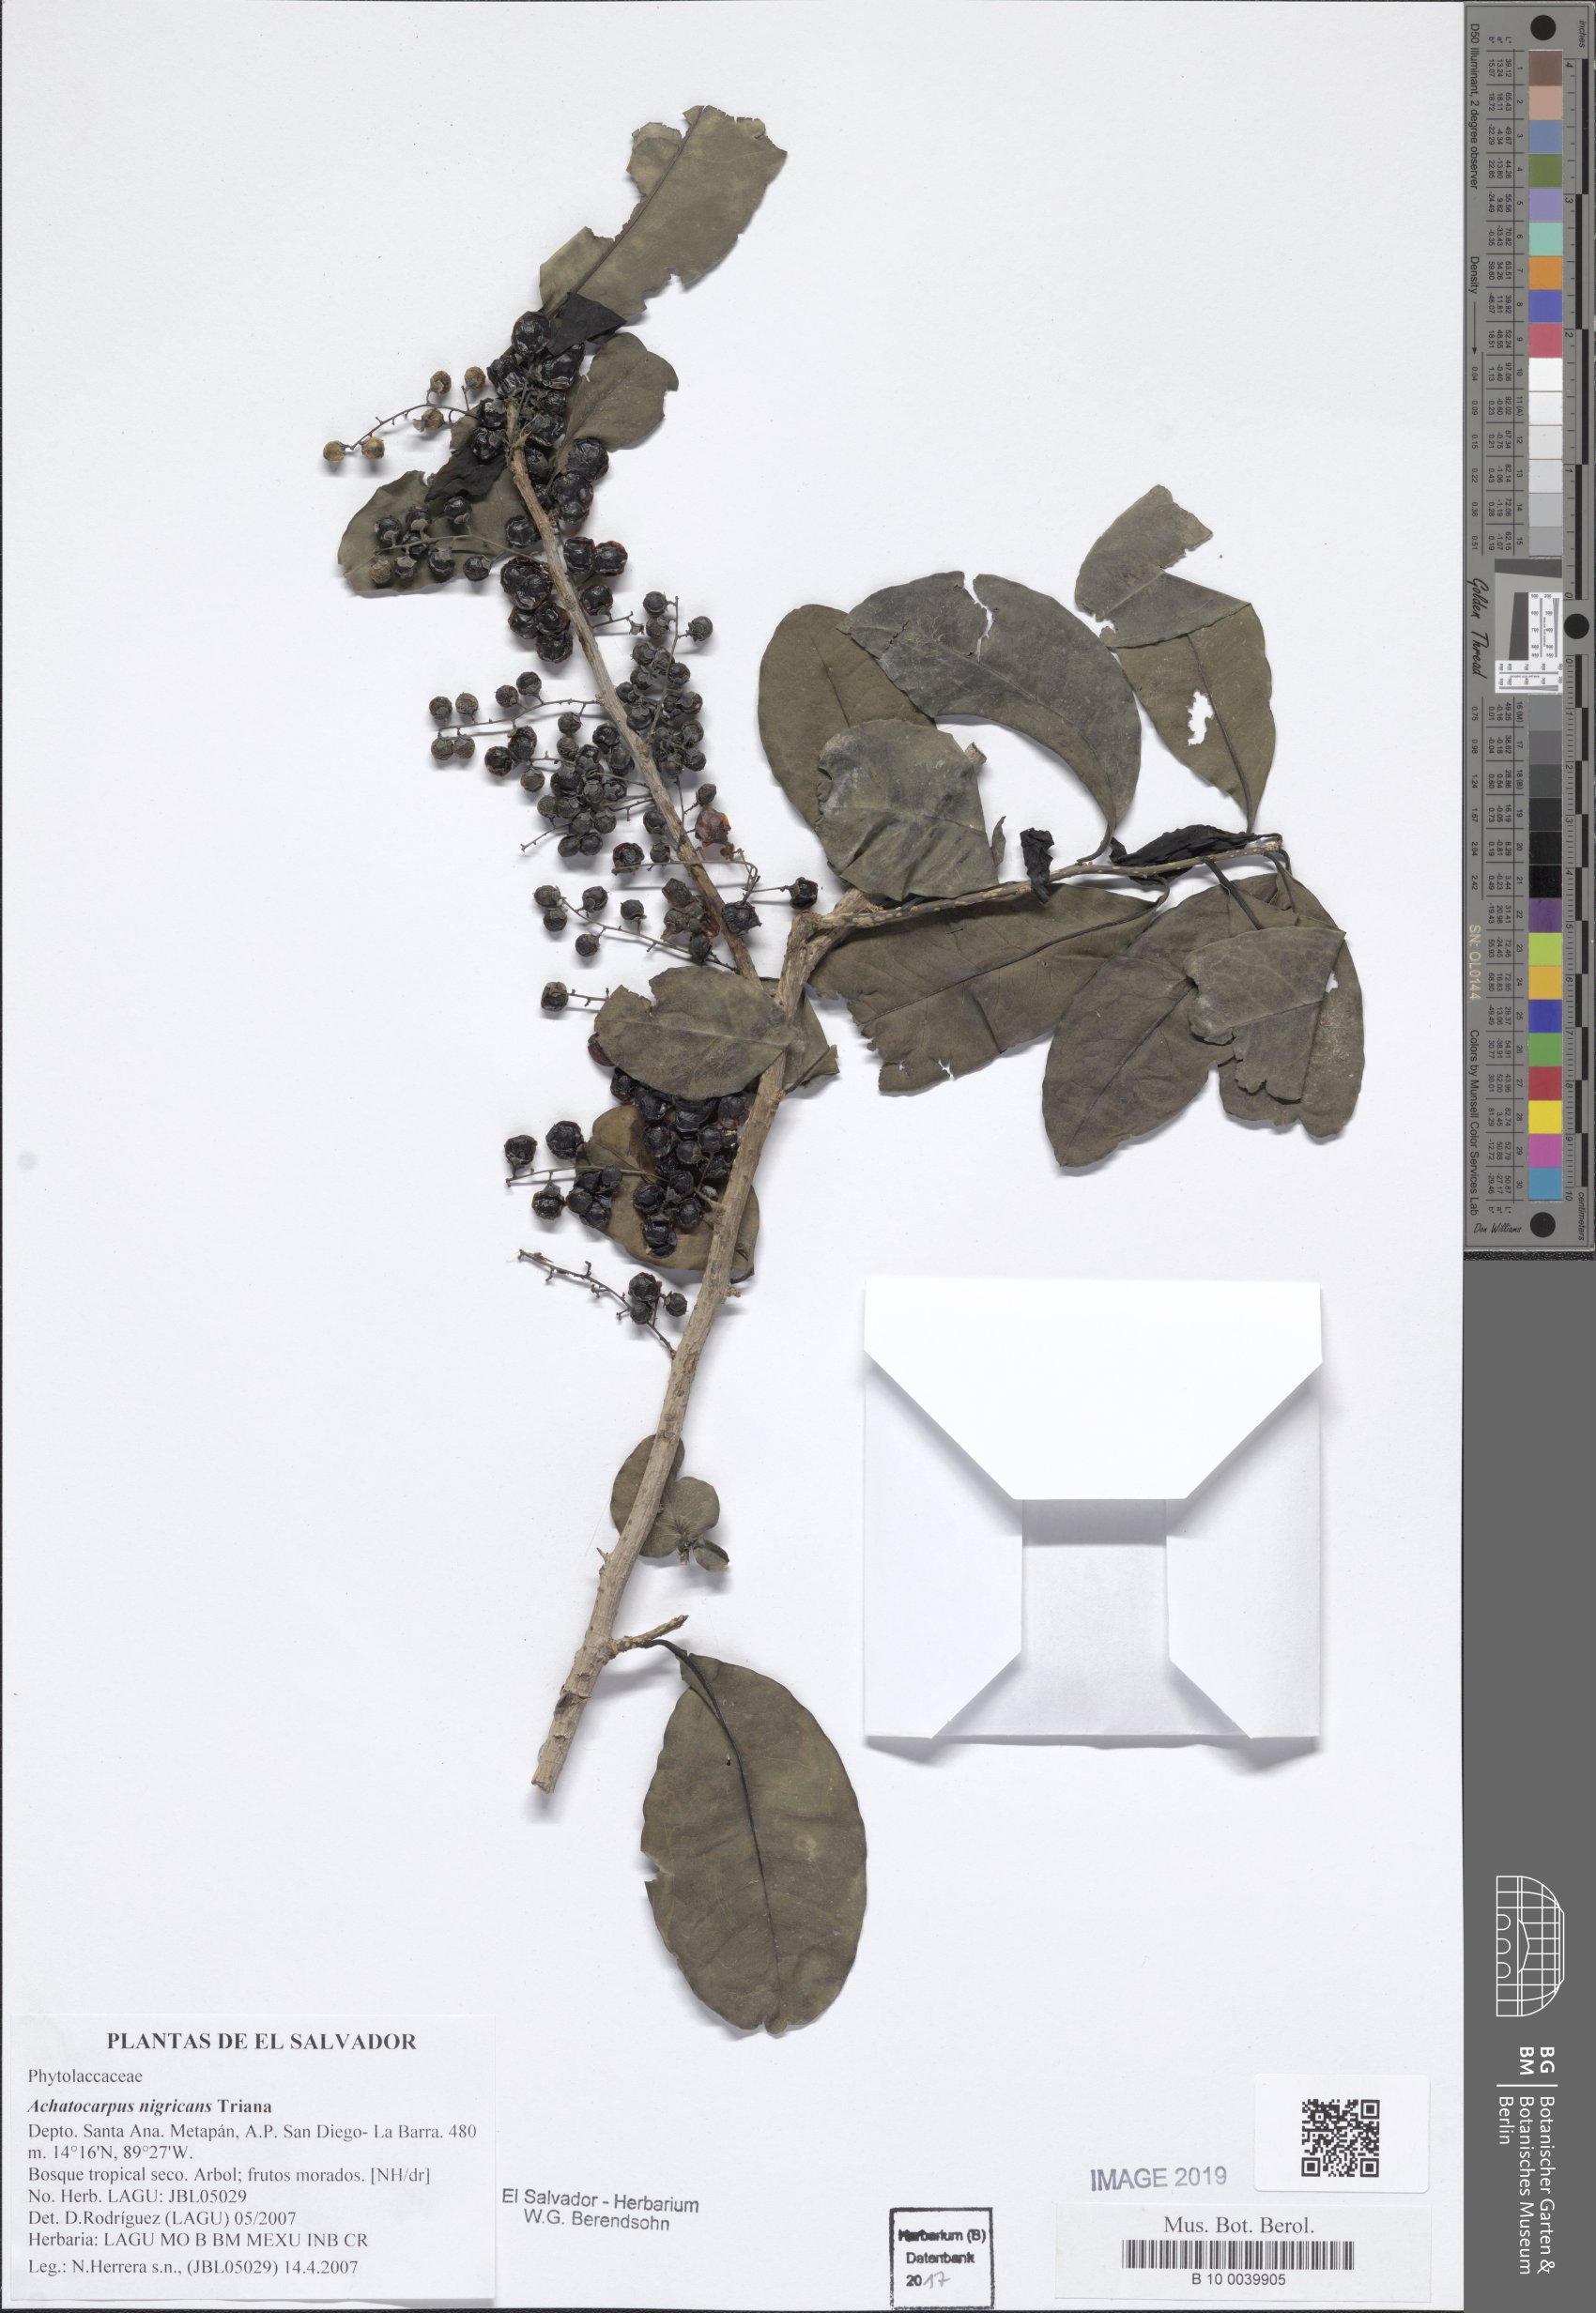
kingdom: Plantae
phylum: Tracheophyta
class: Magnoliopsida
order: Caryophyllales
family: Achatocarpaceae
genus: Achatocarpus
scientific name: Achatocarpus nigricans
